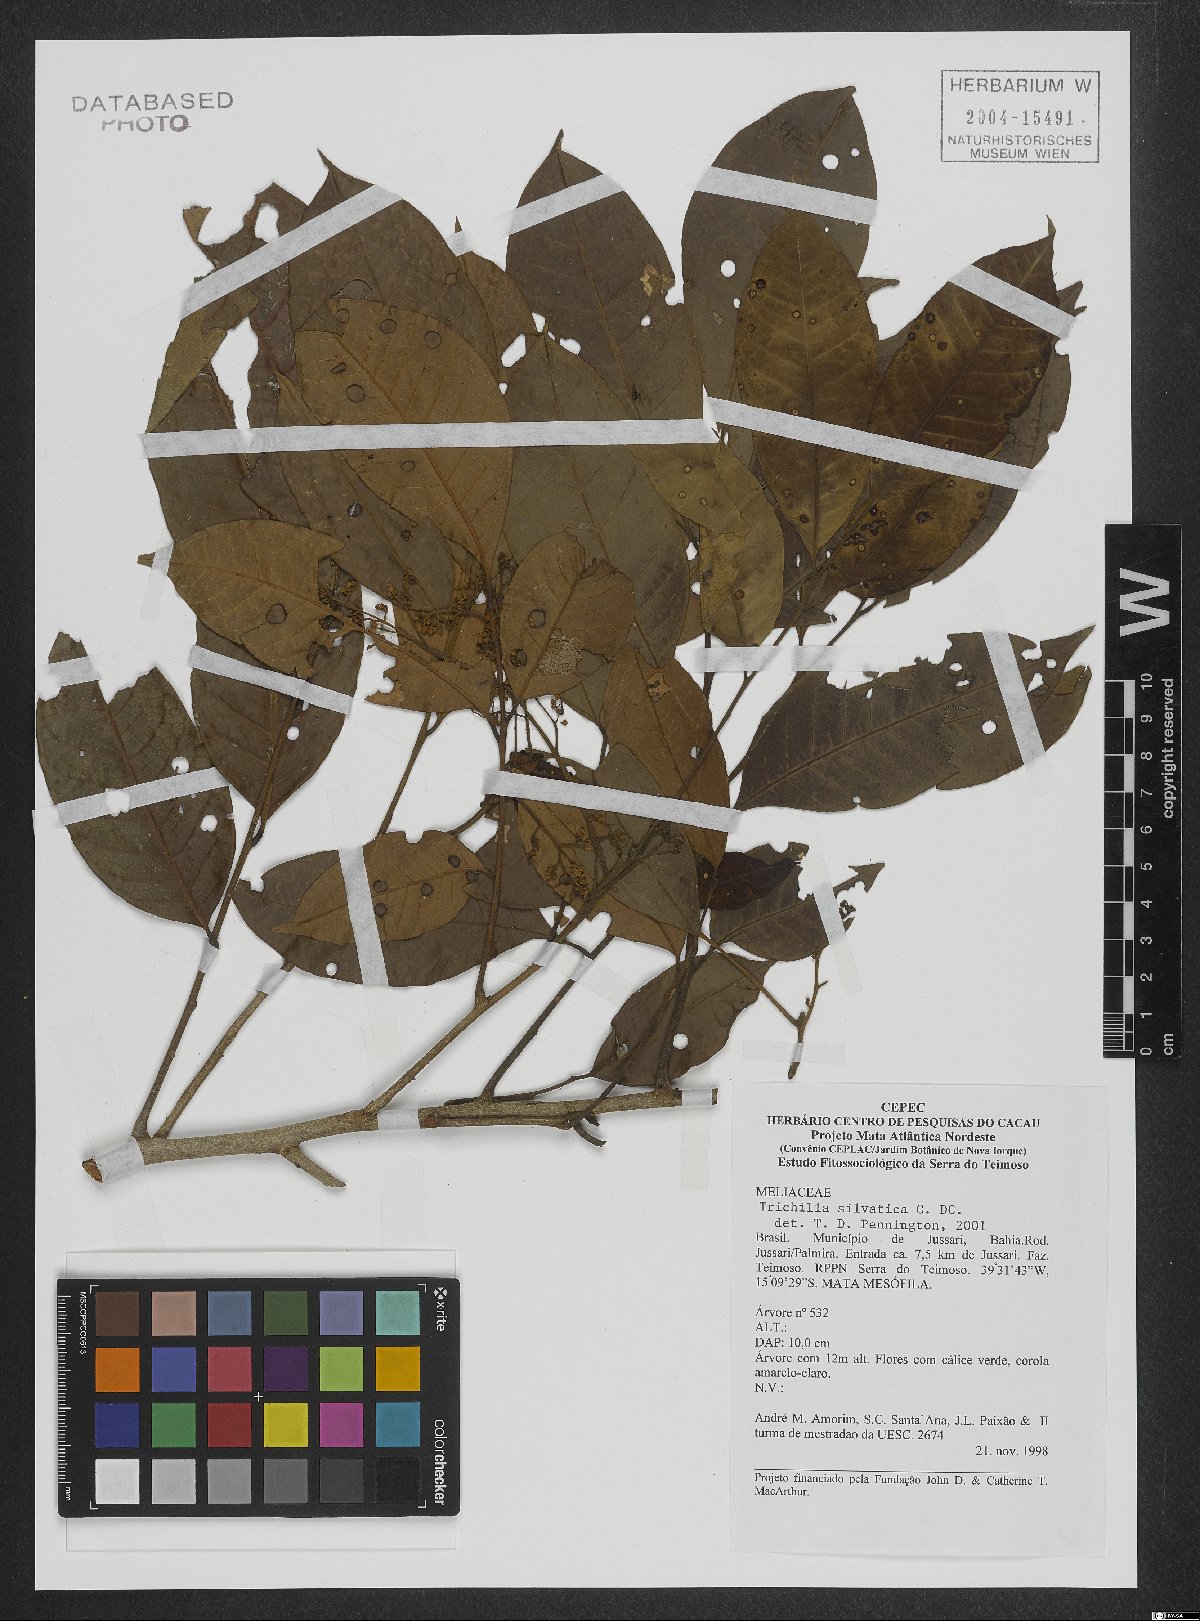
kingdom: Plantae
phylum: Tracheophyta
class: Magnoliopsida
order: Sapindales
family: Meliaceae
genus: Trichilia
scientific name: Trichilia silvatica
